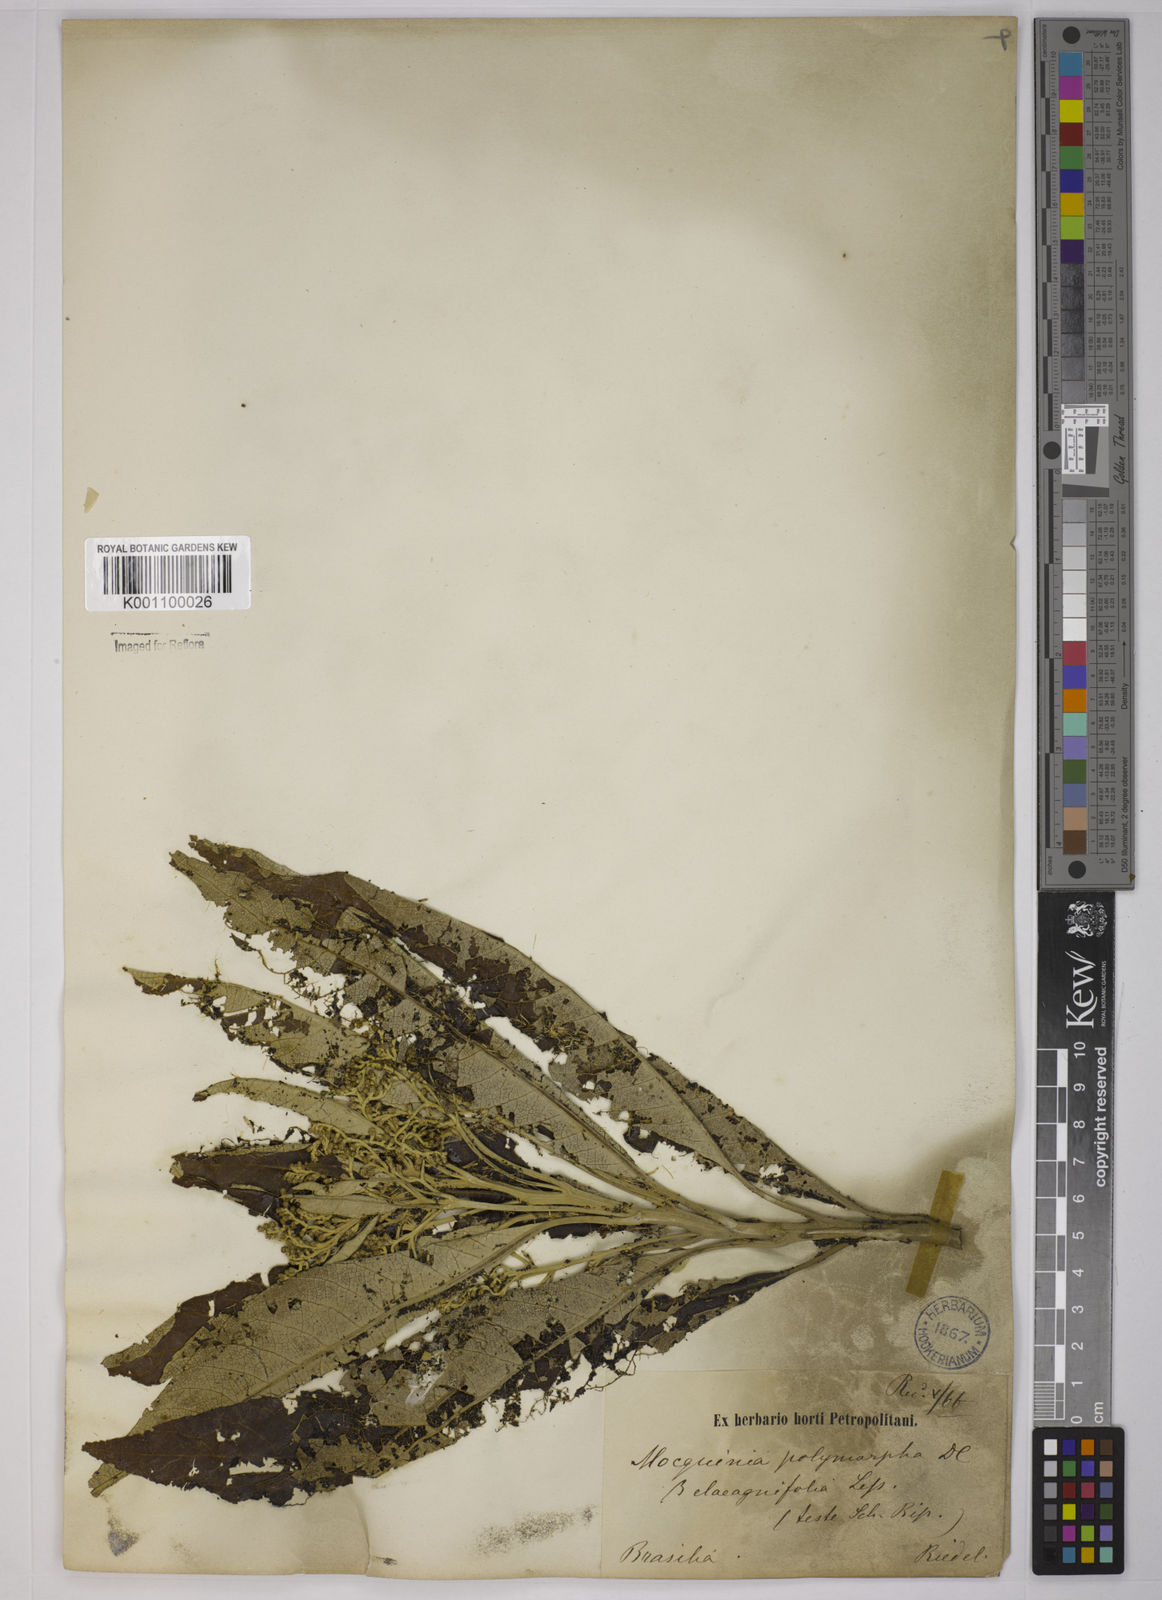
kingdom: Plantae
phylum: Tracheophyta
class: Magnoliopsida
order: Asterales
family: Asteraceae
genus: Gochnatia
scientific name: Gochnatia
